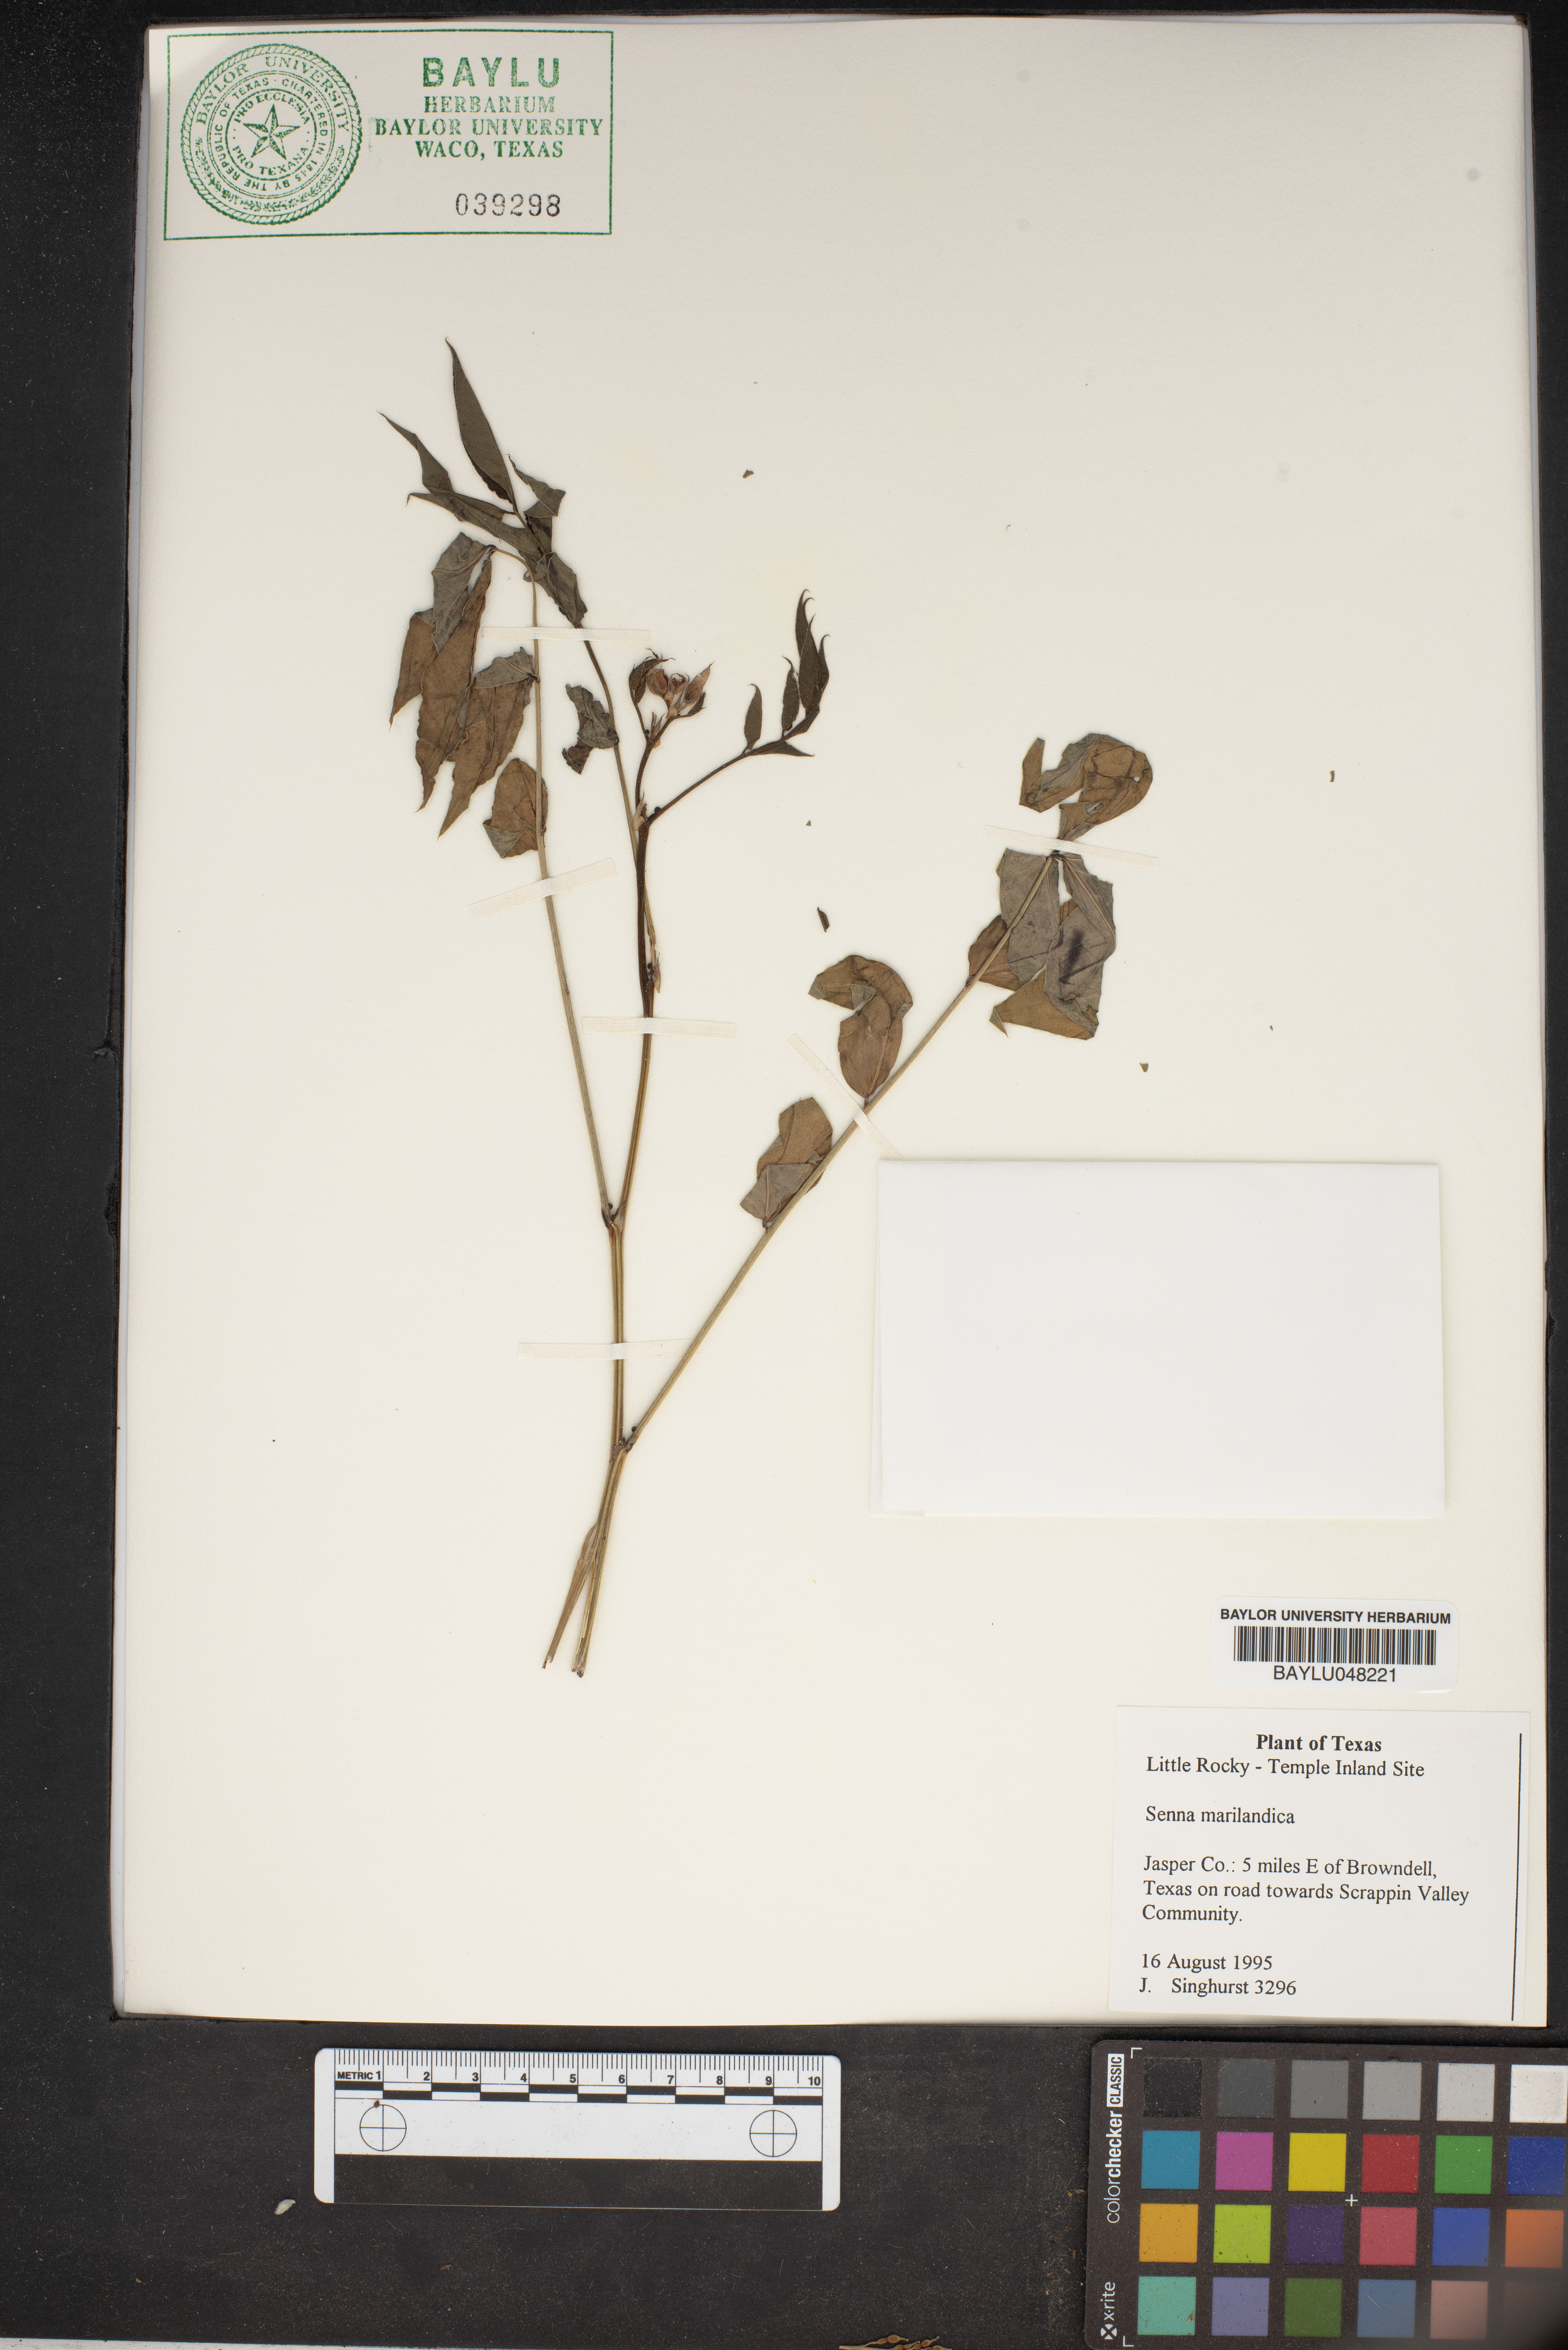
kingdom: Plantae
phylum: Tracheophyta
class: Magnoliopsida
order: Fabales
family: Fabaceae
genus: Senna
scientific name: Senna marilandica
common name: American senna
